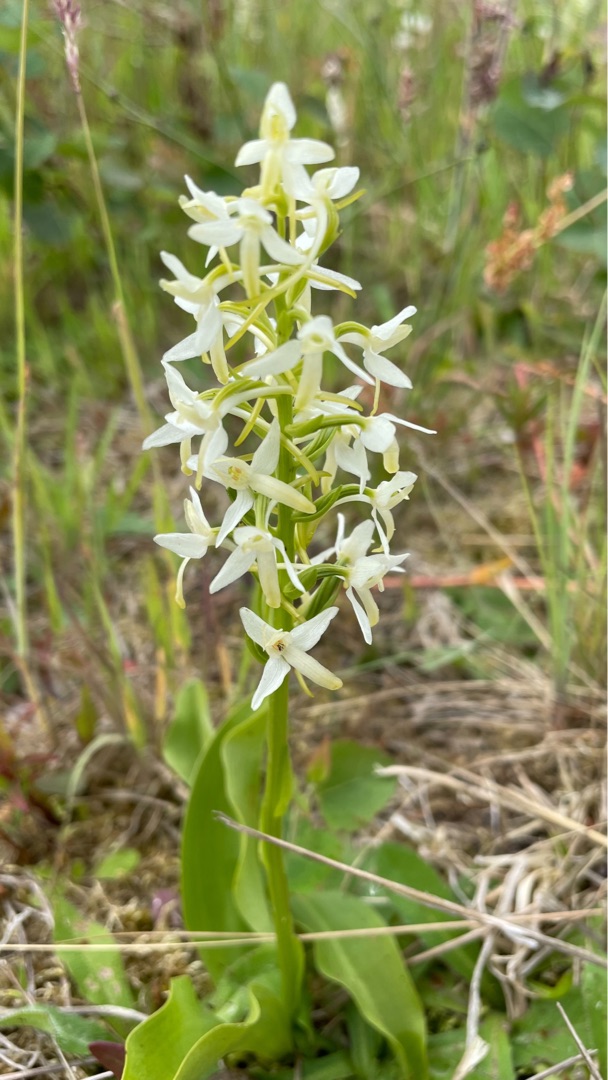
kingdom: Plantae
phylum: Tracheophyta
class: Liliopsida
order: Asparagales
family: Orchidaceae
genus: Platanthera
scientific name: Platanthera bifolia
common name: Bakke-gøgelilje
